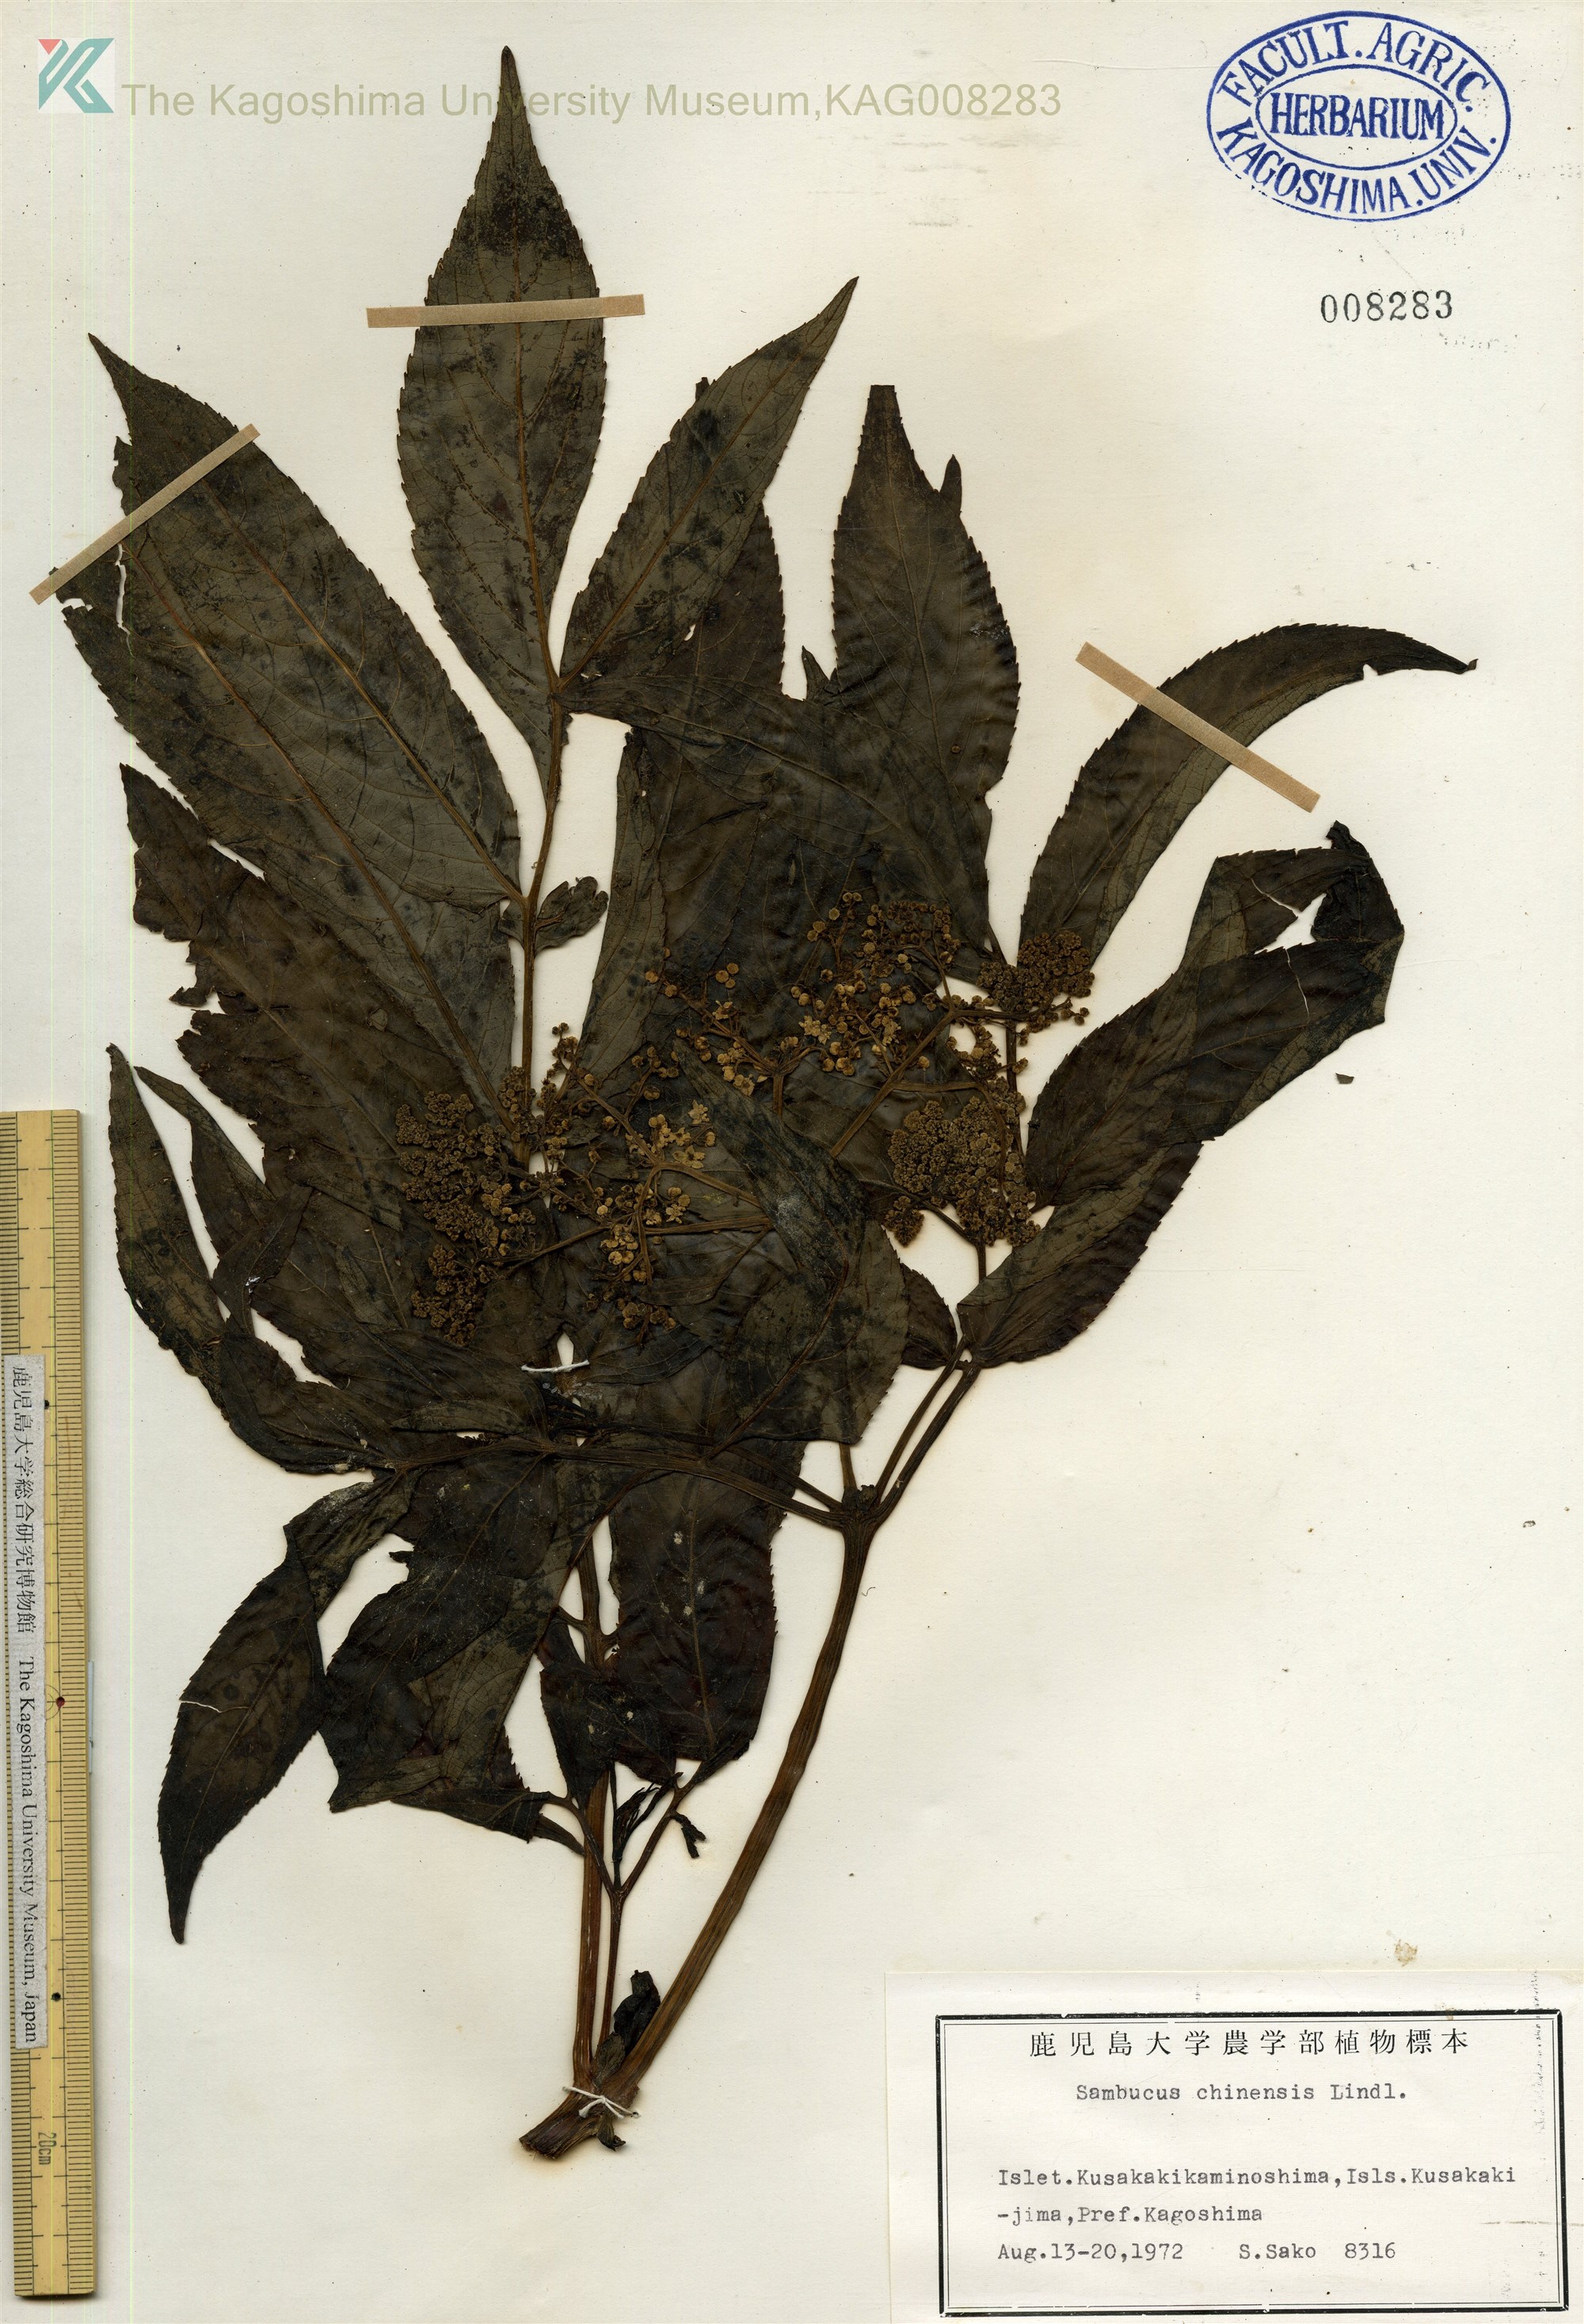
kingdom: Plantae
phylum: Tracheophyta
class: Magnoliopsida
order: Dipsacales
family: Viburnaceae
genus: Sambucus
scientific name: Sambucus javanica
